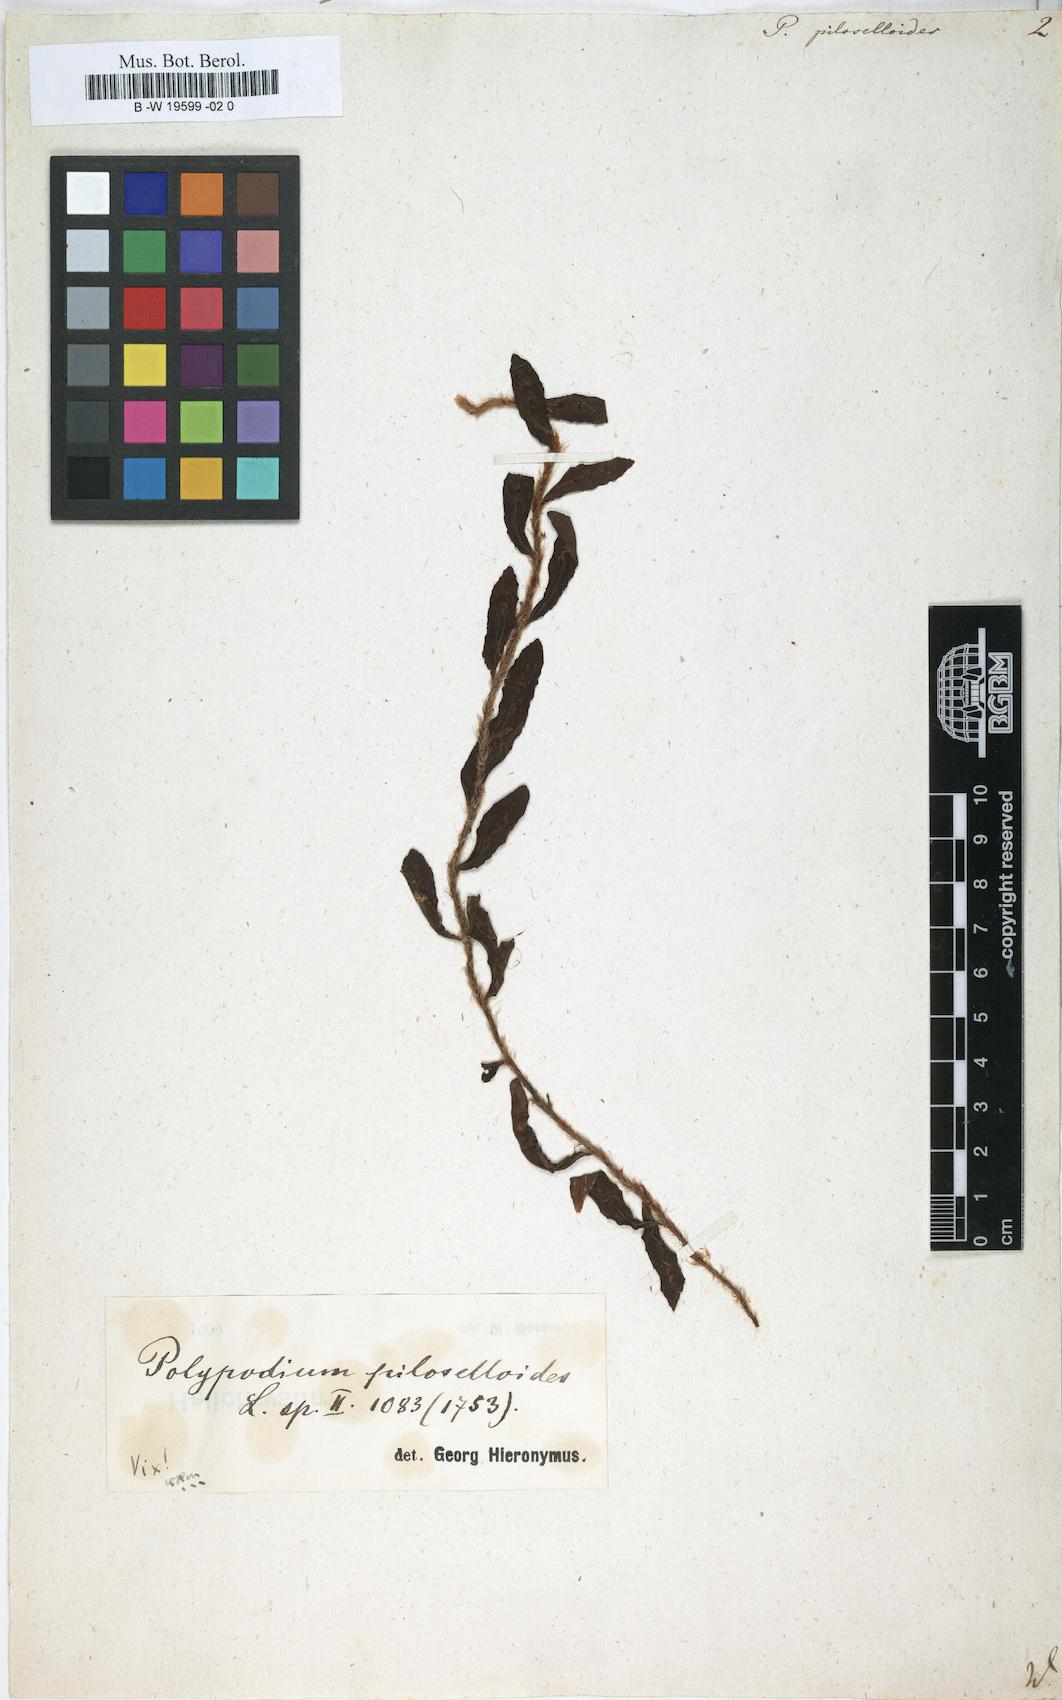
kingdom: Plantae
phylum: Tracheophyta
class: Polypodiopsida
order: Polypodiales
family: Polypodiaceae
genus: Microgramma
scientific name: Microgramma piloselloides
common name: Hairy snakefern
